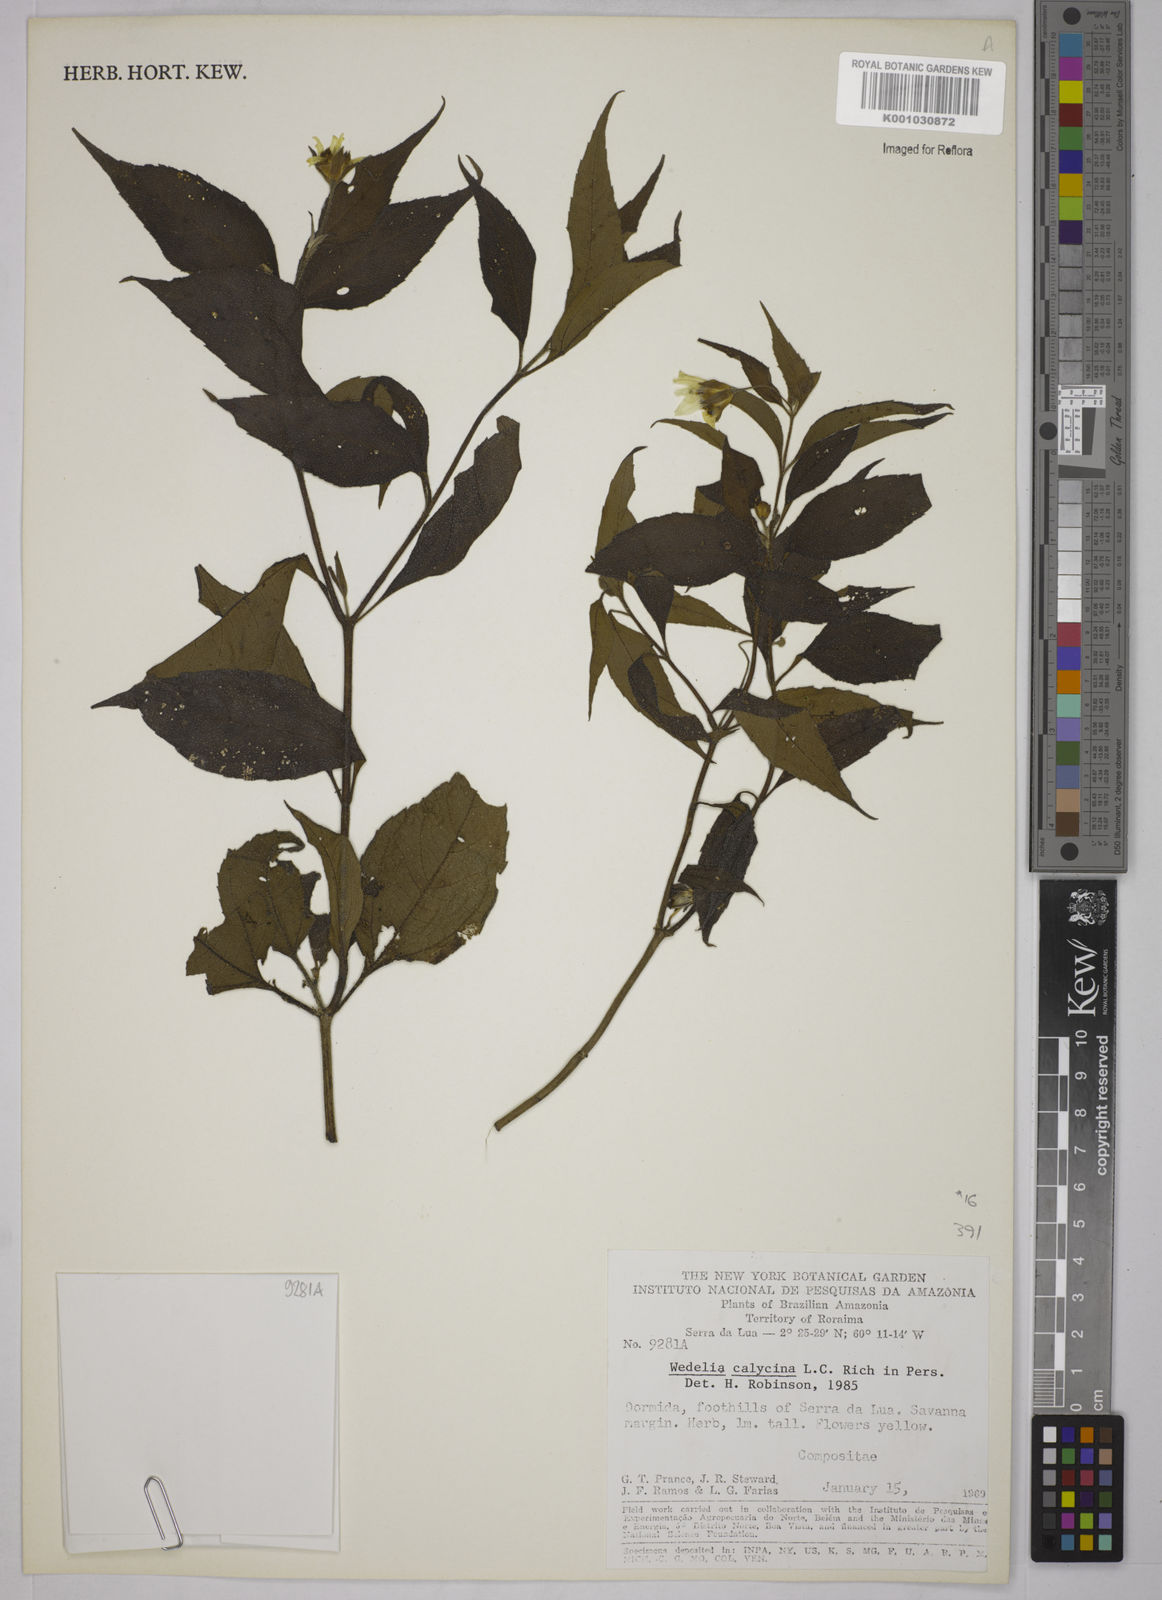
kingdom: Plantae
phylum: Tracheophyta
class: Magnoliopsida
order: Asterales
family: Asteraceae
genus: Wedelia
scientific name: Wedelia
